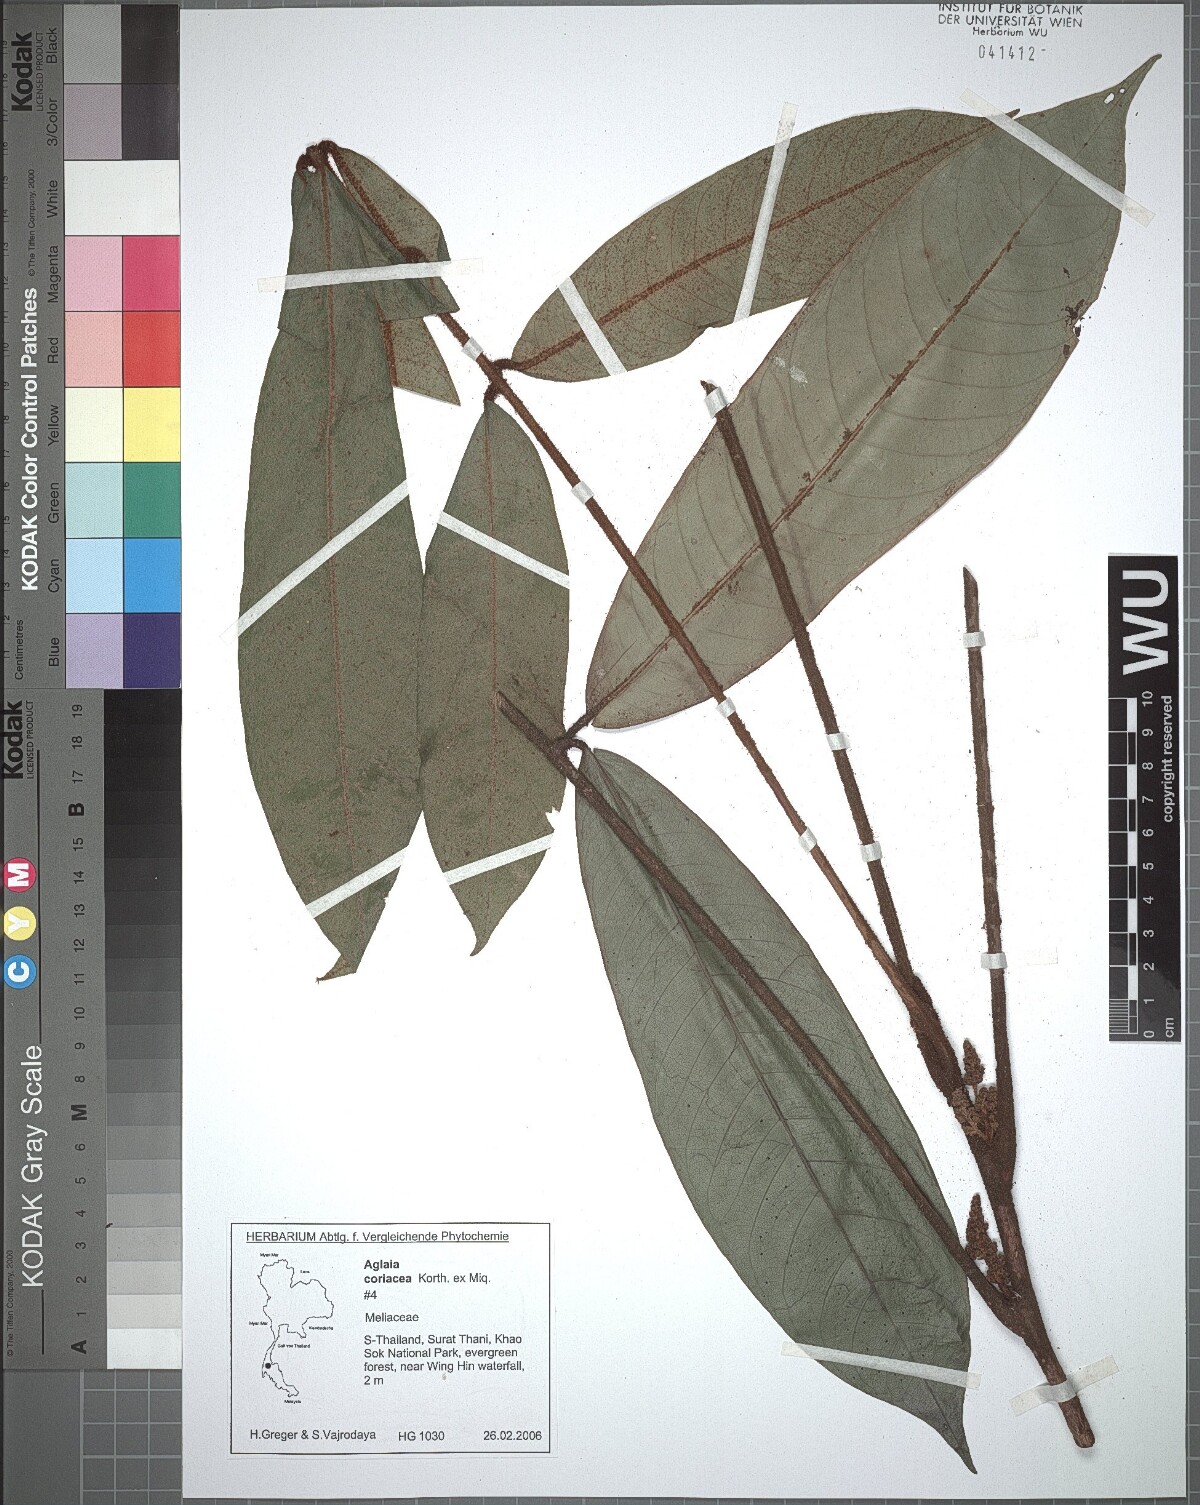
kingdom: Plantae
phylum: Tracheophyta
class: Magnoliopsida
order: Sapindales
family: Meliaceae
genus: Aglaia
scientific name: Aglaia coriacea
